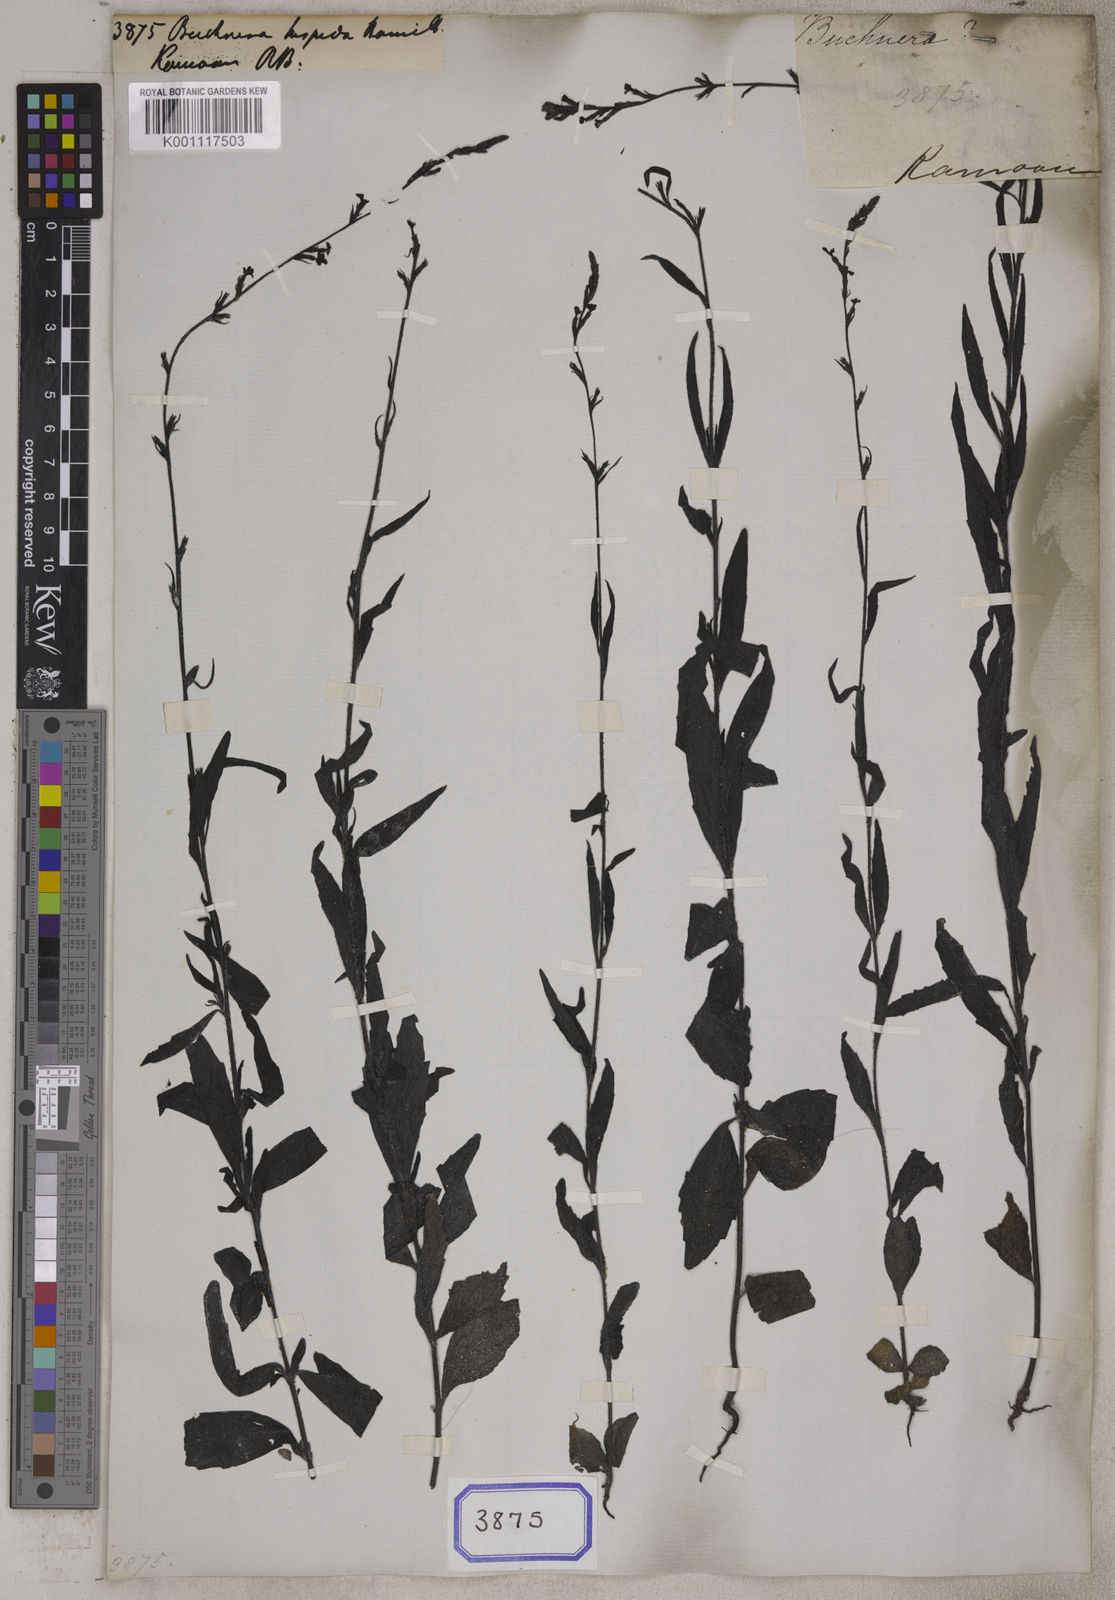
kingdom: Plantae
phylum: Tracheophyta
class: Magnoliopsida
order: Lamiales
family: Orobanchaceae
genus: Buchnera
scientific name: Buchnera
